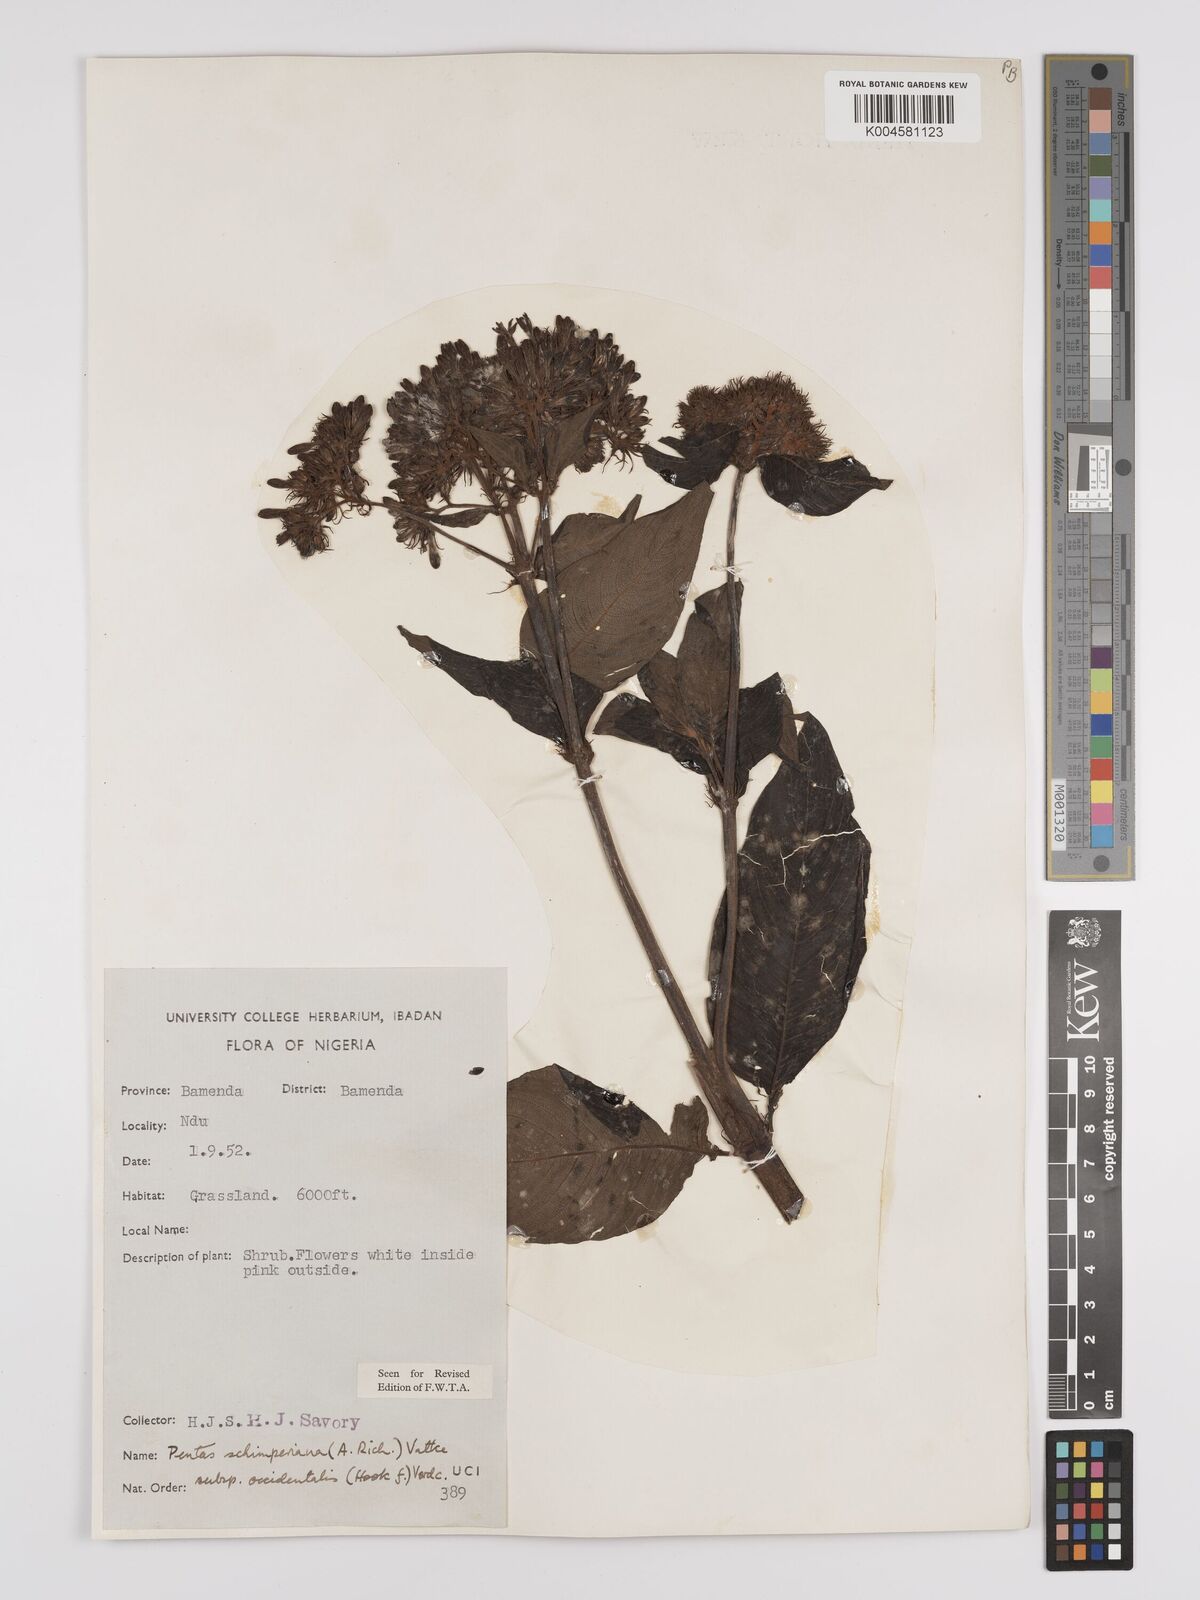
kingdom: Plantae
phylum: Tracheophyta
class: Magnoliopsida
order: Gentianales
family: Rubiaceae
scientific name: Rubiaceae
